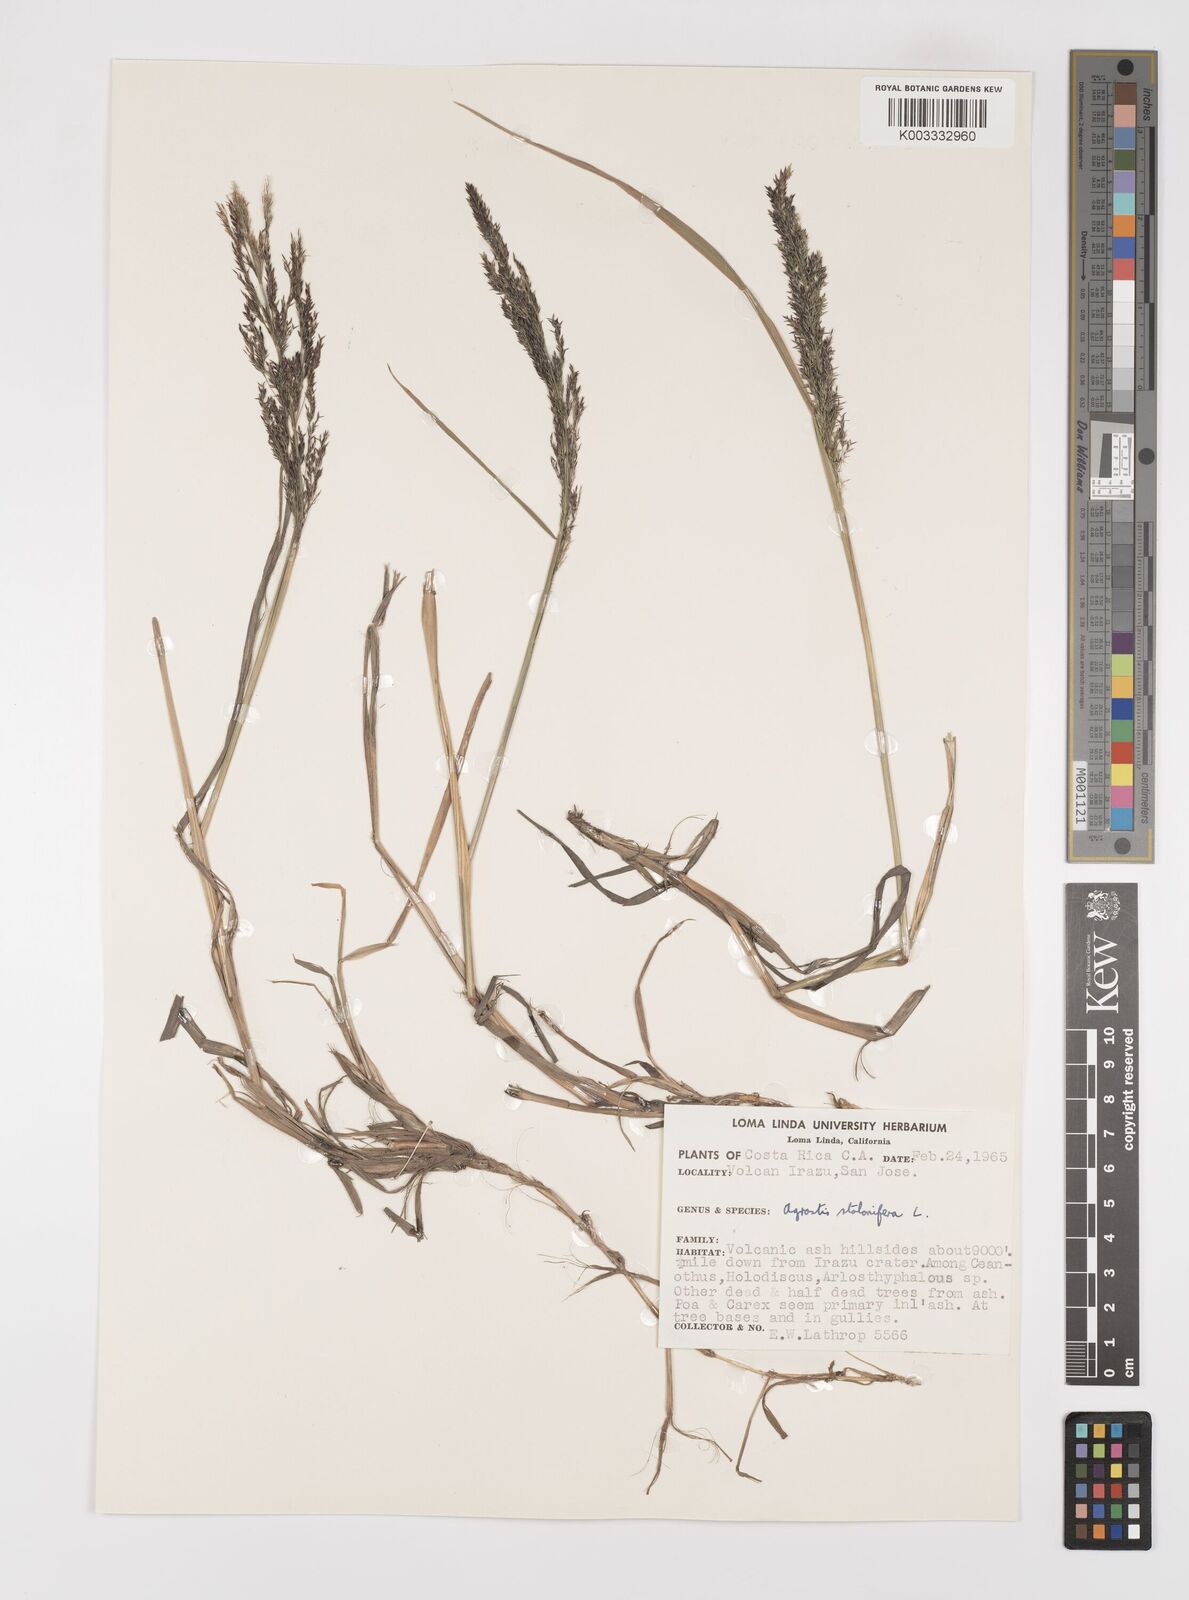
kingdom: Plantae
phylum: Tracheophyta
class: Liliopsida
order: Poales
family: Poaceae
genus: Polypogon
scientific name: Polypogon viridis
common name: Water bent
